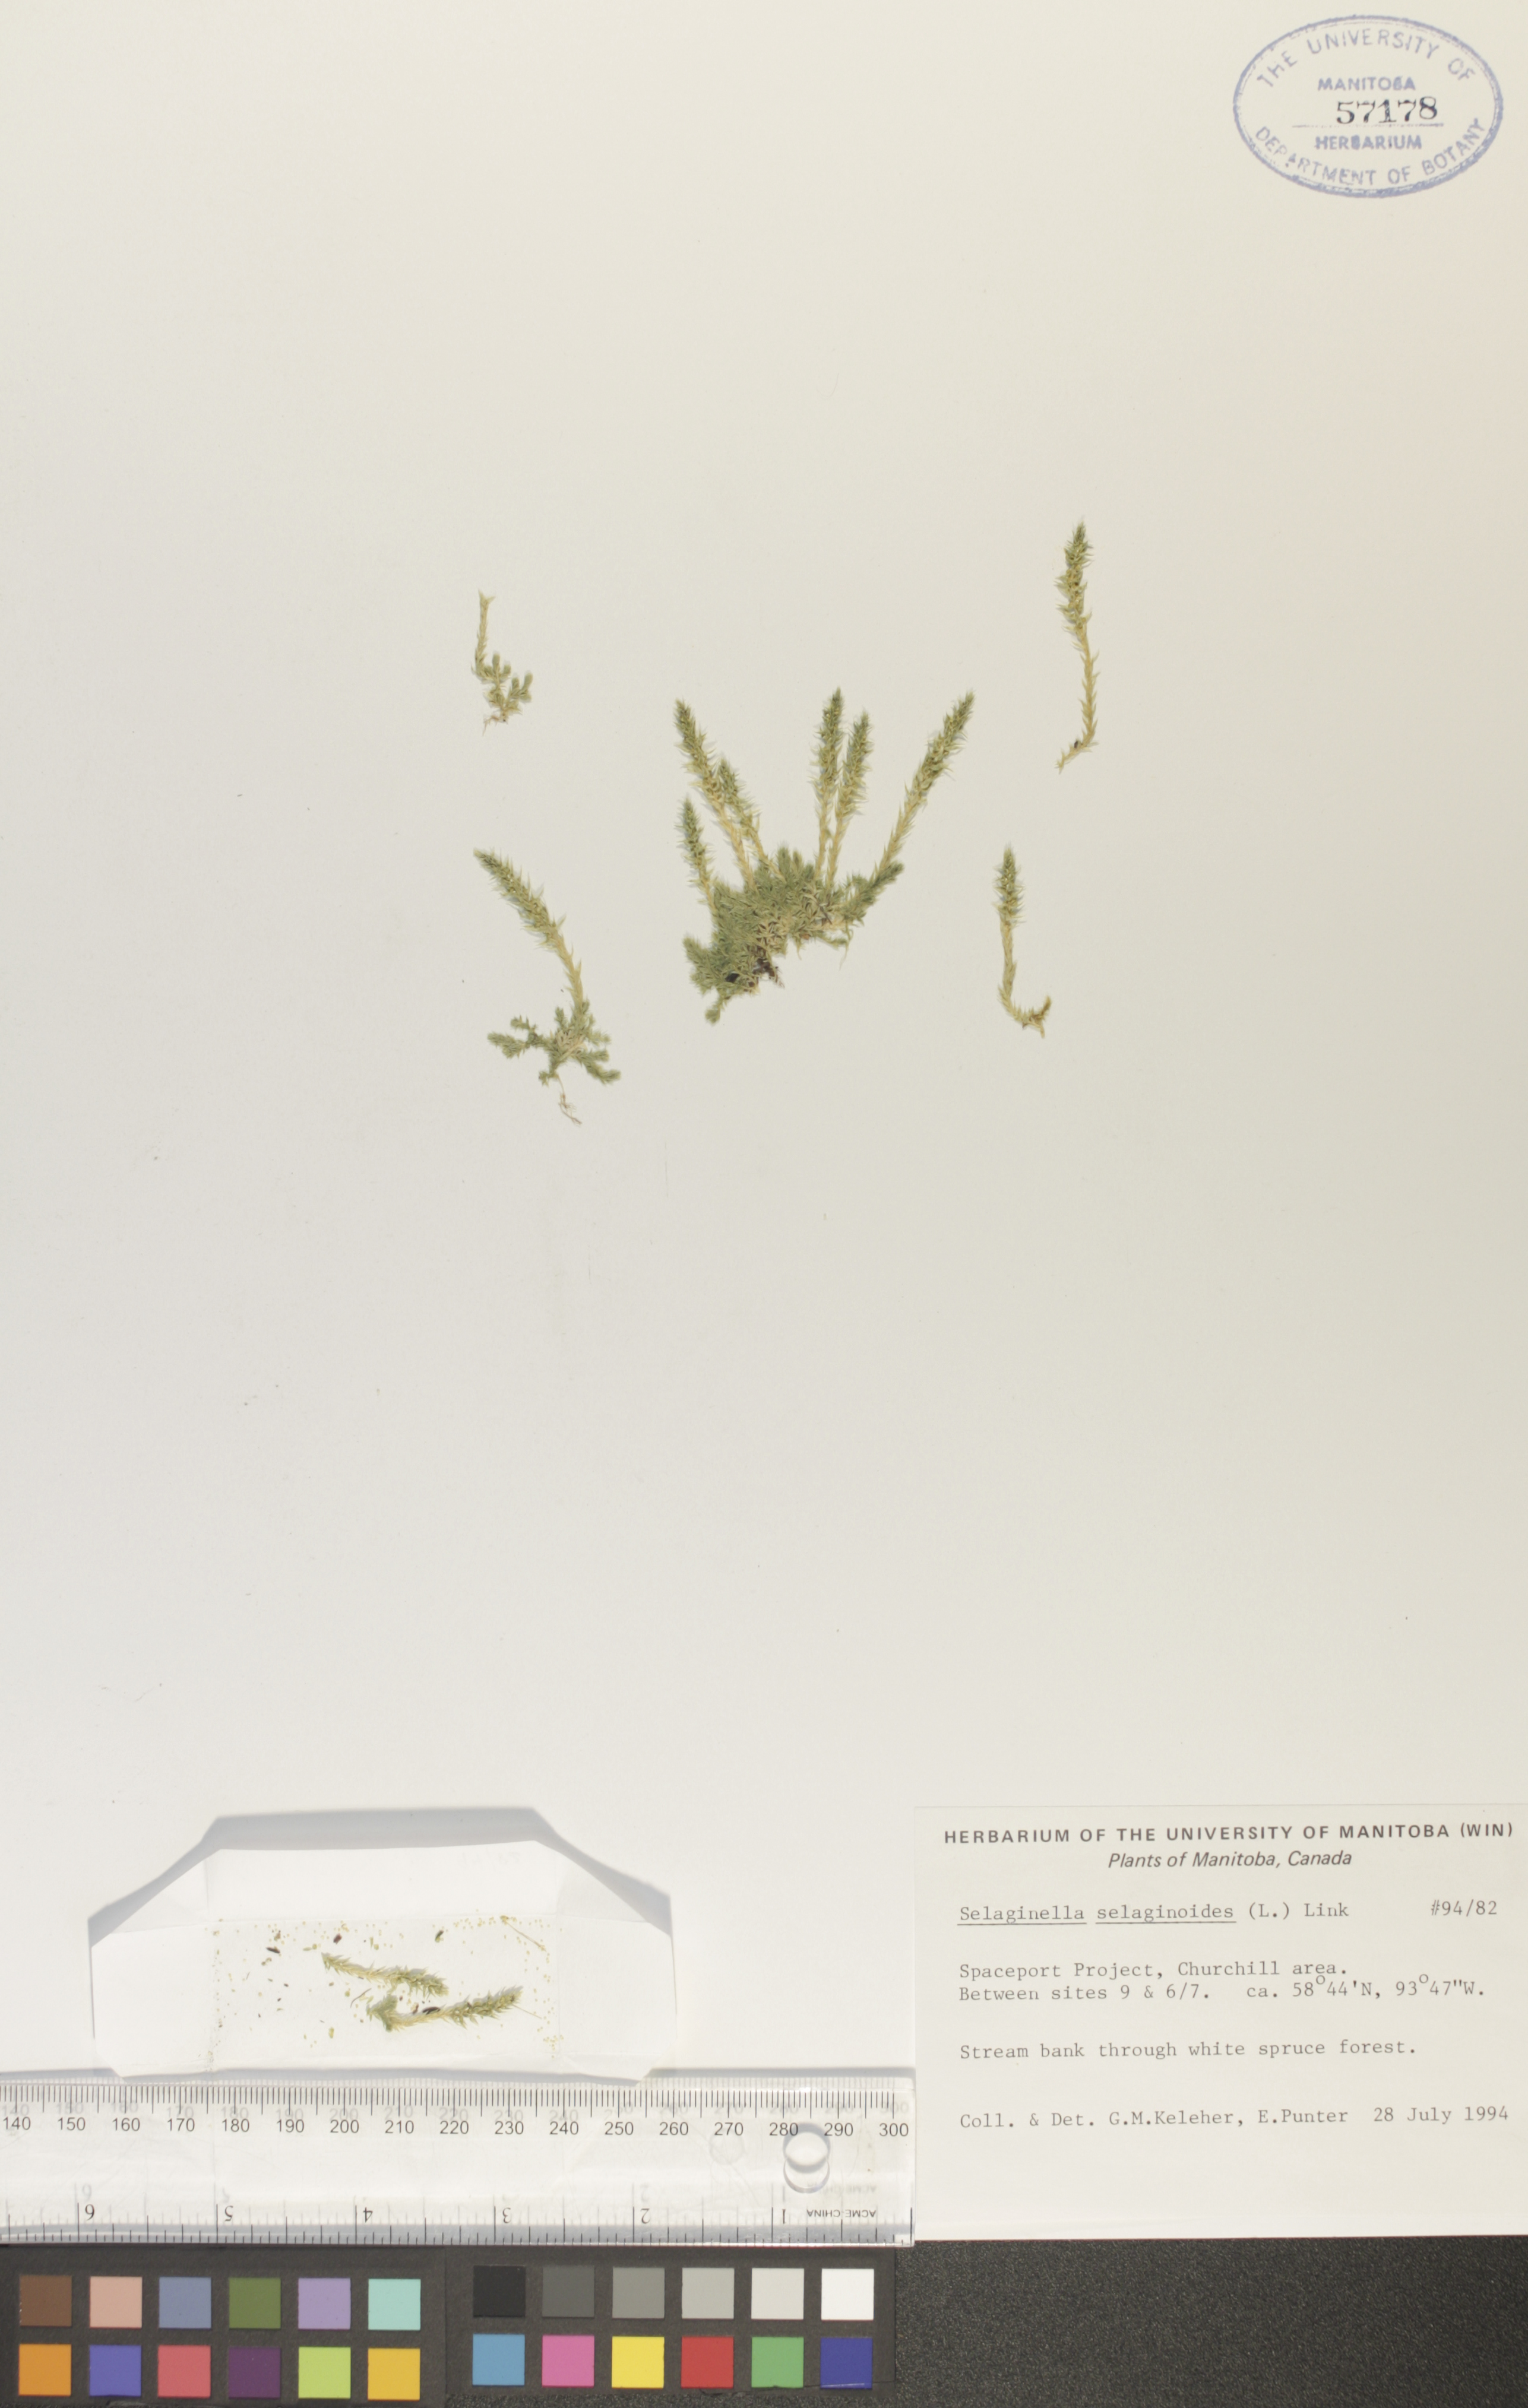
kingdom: Plantae
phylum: Tracheophyta
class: Lycopodiopsida
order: Selaginellales
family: Selaginellaceae
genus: Selaginella
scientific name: Selaginella selaginoides
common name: Prickly mountain-moss
